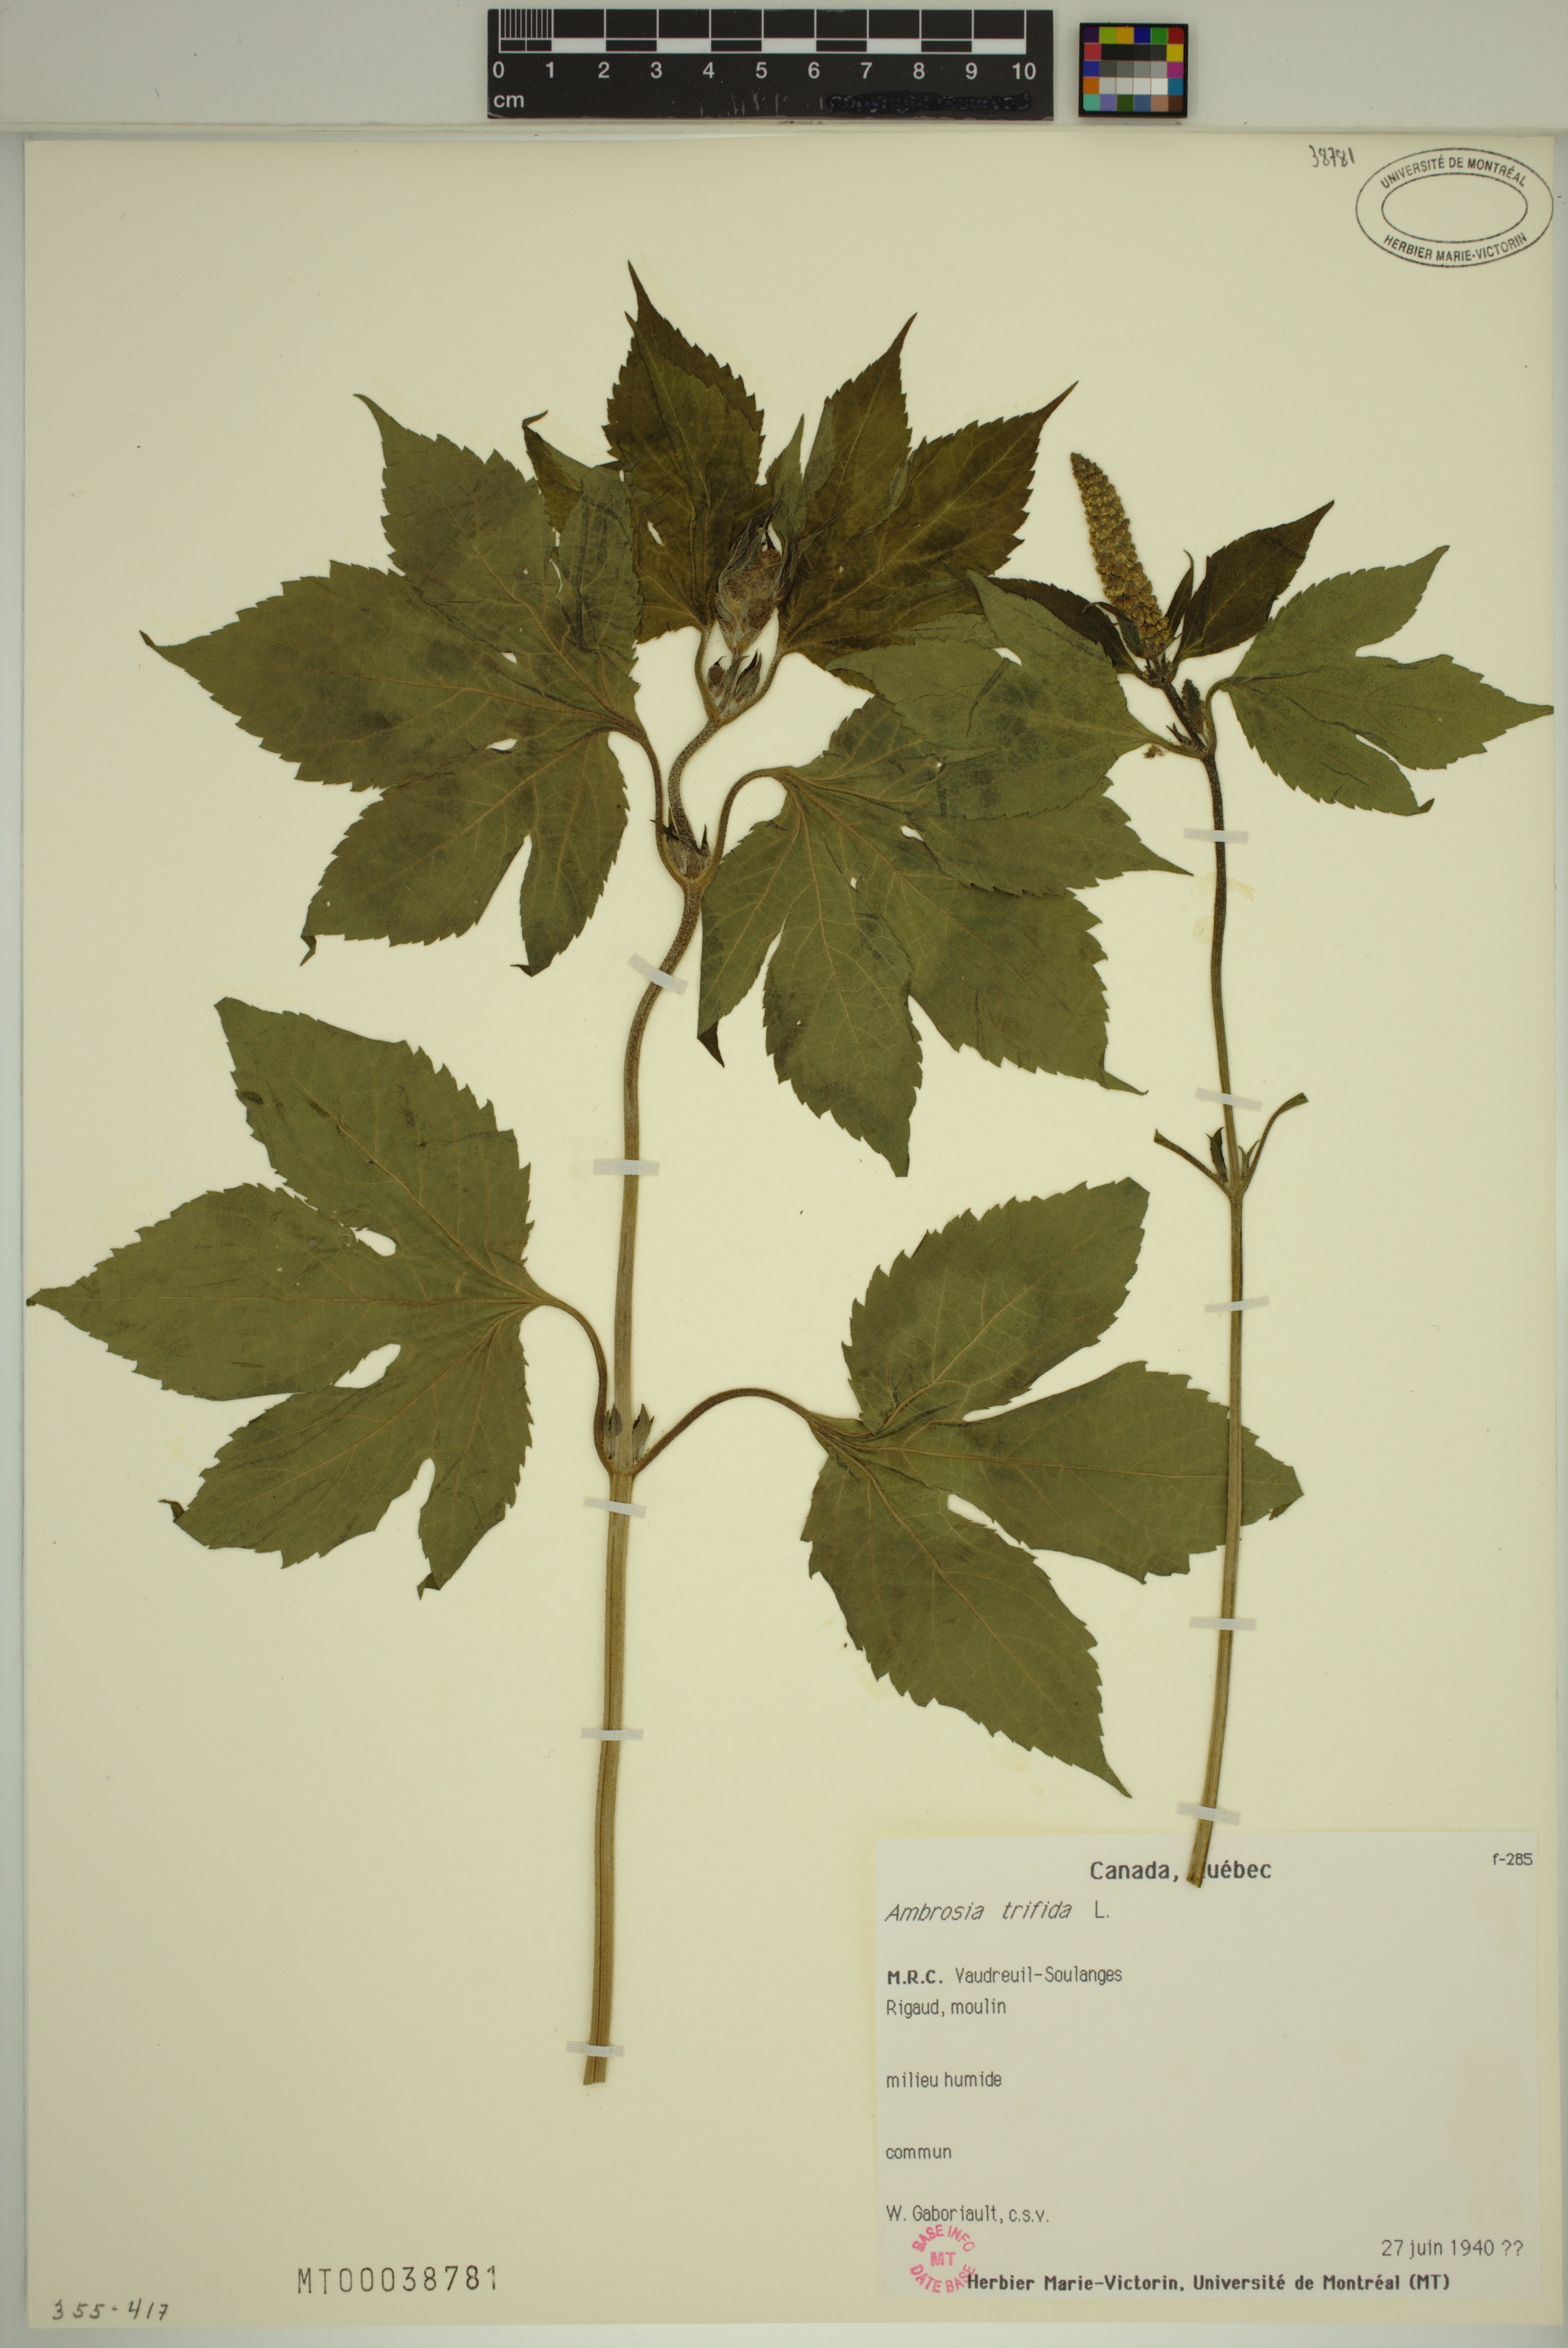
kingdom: Plantae
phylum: Tracheophyta
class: Magnoliopsida
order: Asterales
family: Asteraceae
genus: Ambrosia
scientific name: Ambrosia trifida
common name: Giant ragweed
